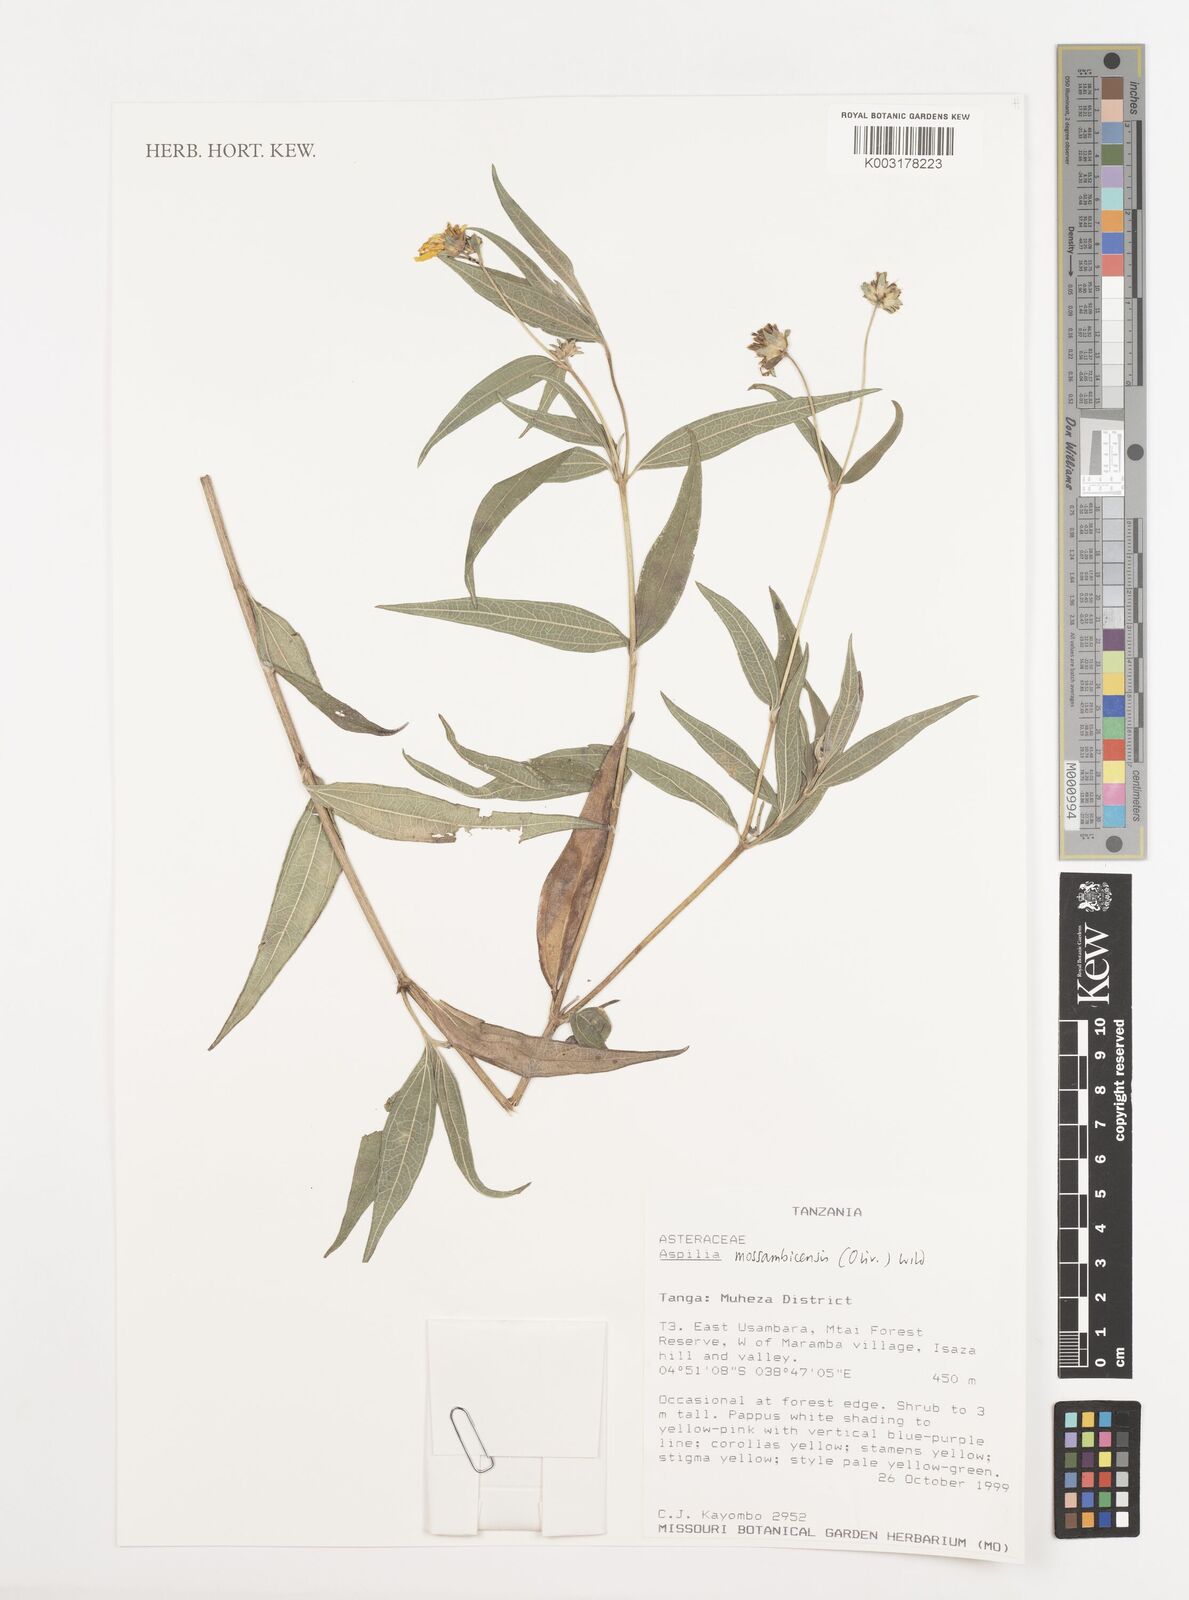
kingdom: Plantae
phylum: Tracheophyta
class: Magnoliopsida
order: Asterales
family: Asteraceae
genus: Aspilia
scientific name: Aspilia mossambicensis
